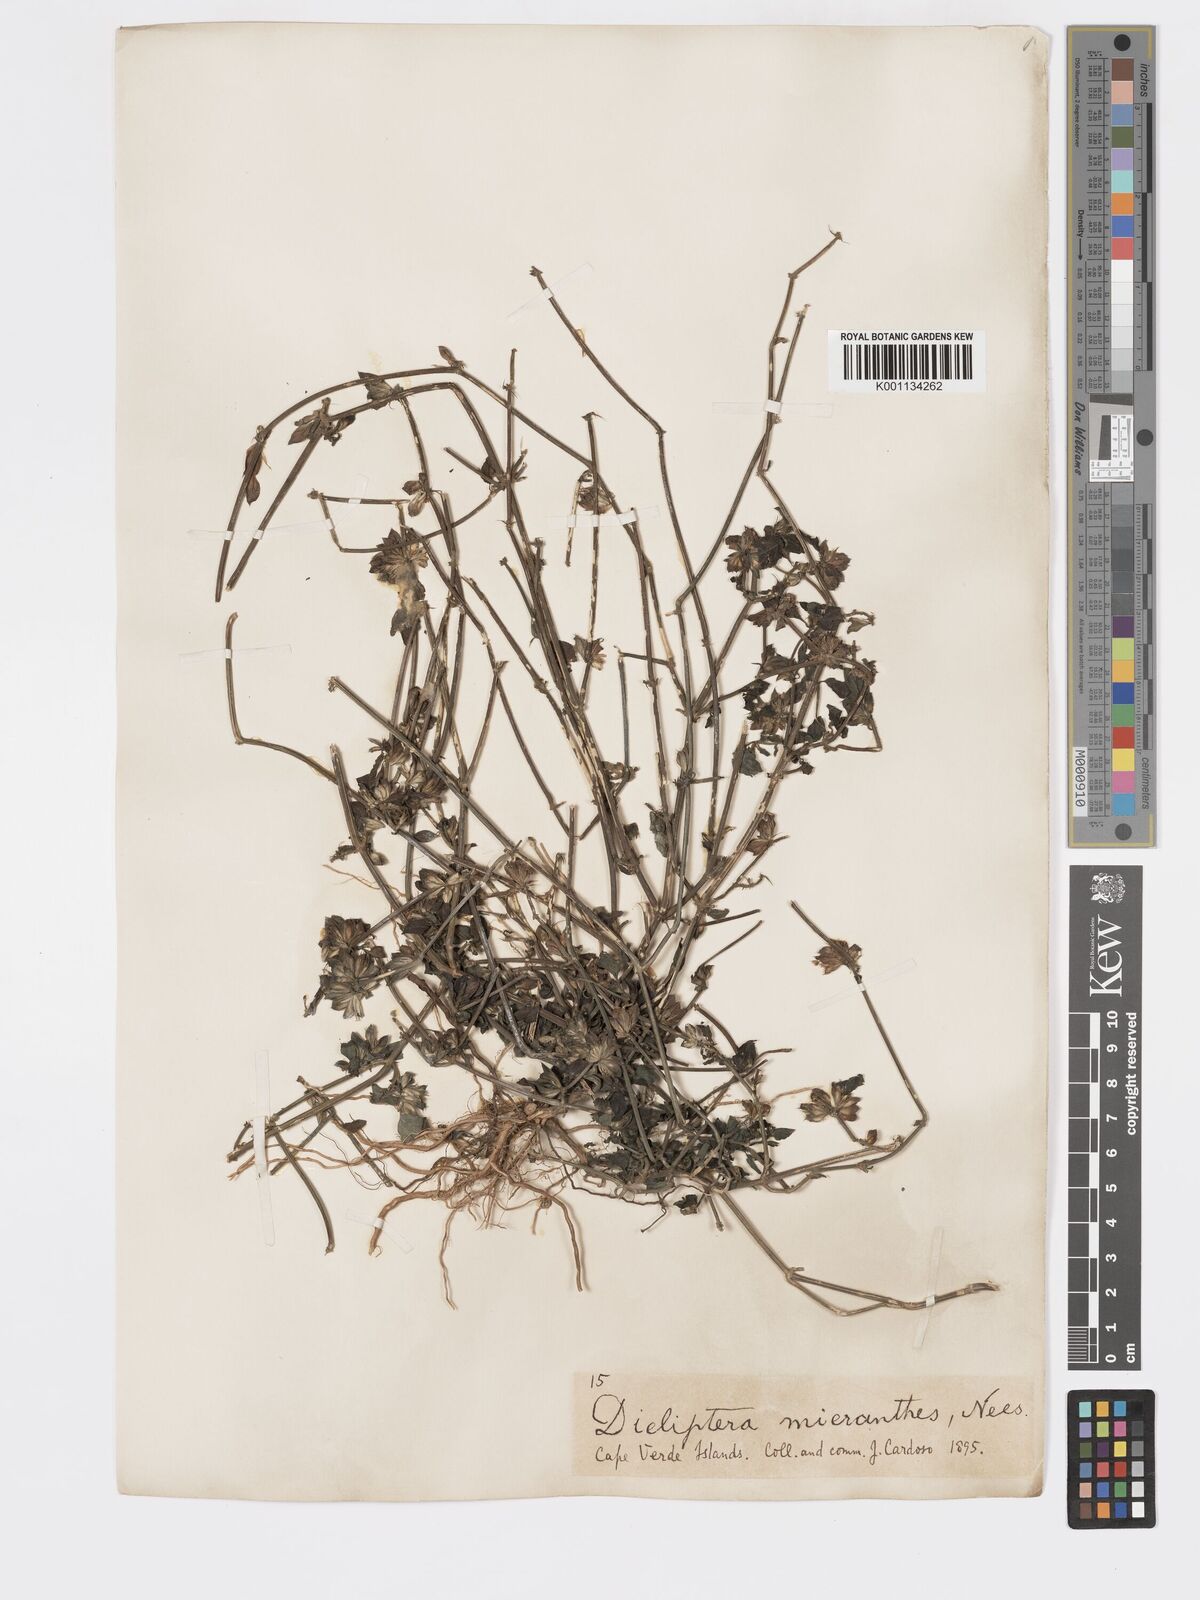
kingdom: Plantae
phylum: Tracheophyta
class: Magnoliopsida
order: Lamiales
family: Acanthaceae
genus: Dicliptera
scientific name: Dicliptera hyalina
